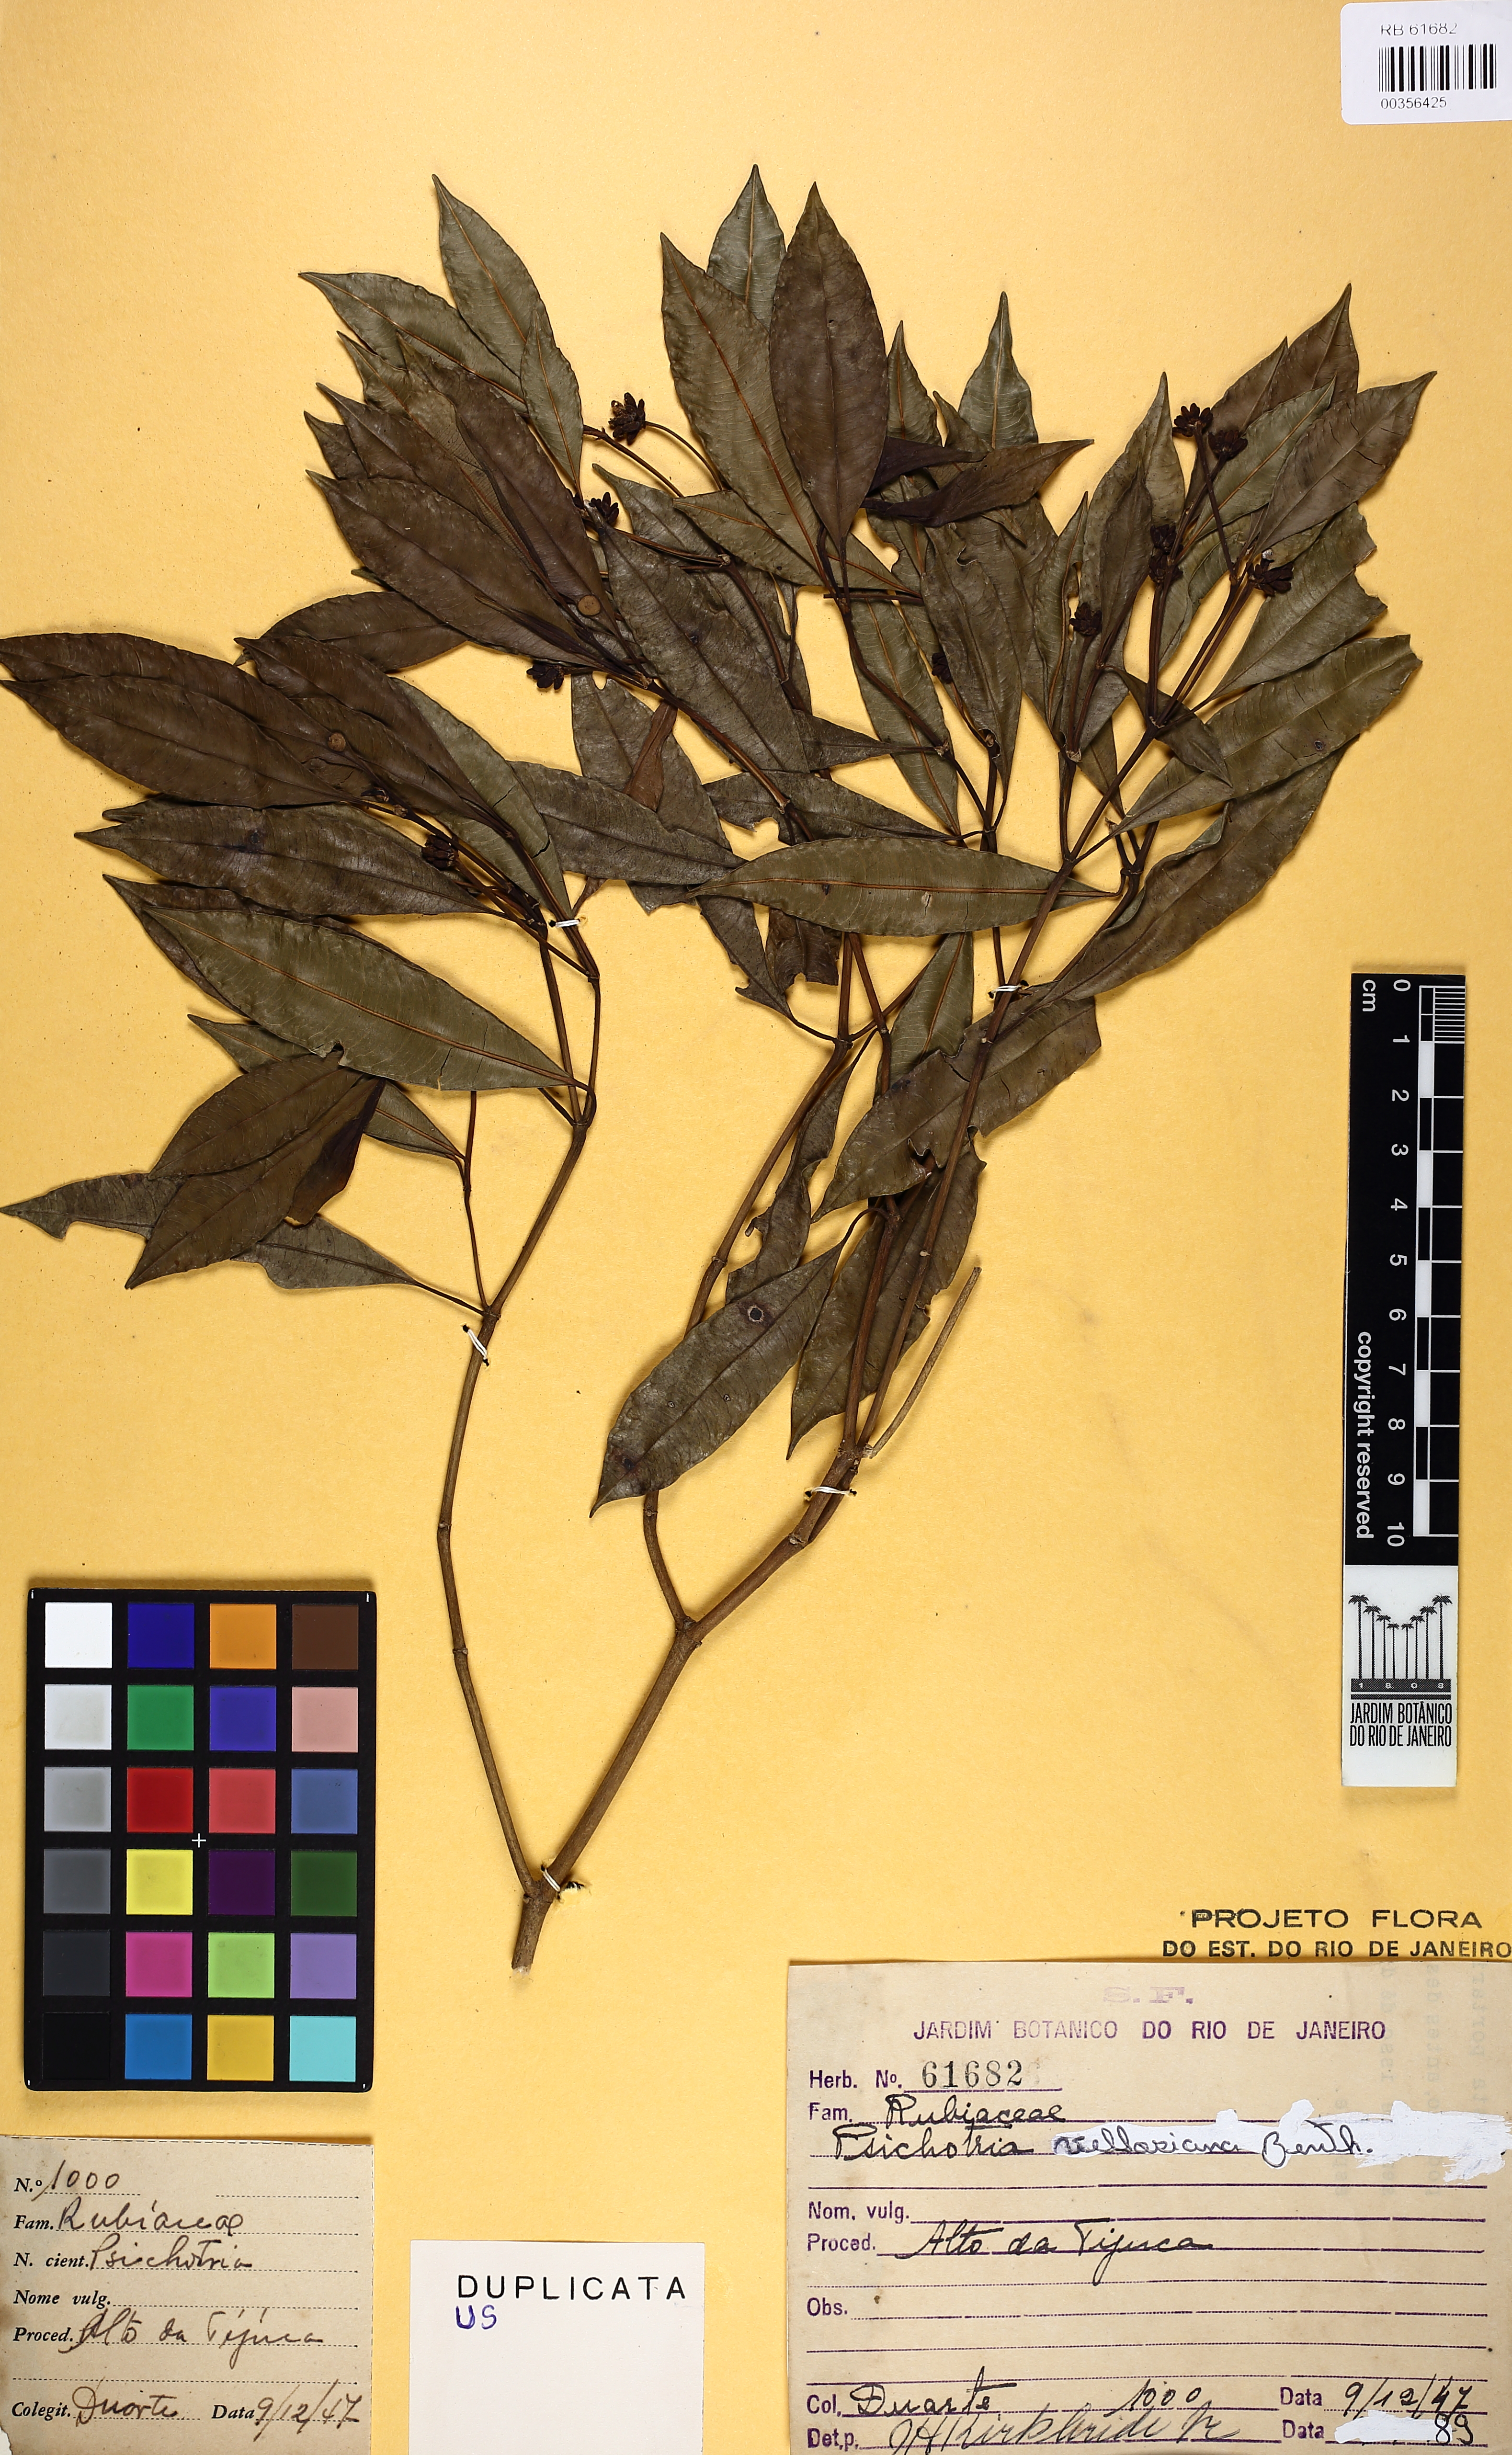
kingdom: Plantae
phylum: Tracheophyta
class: Magnoliopsida
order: Gentianales
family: Rubiaceae
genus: Palicourea
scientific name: Palicourea sessilis
